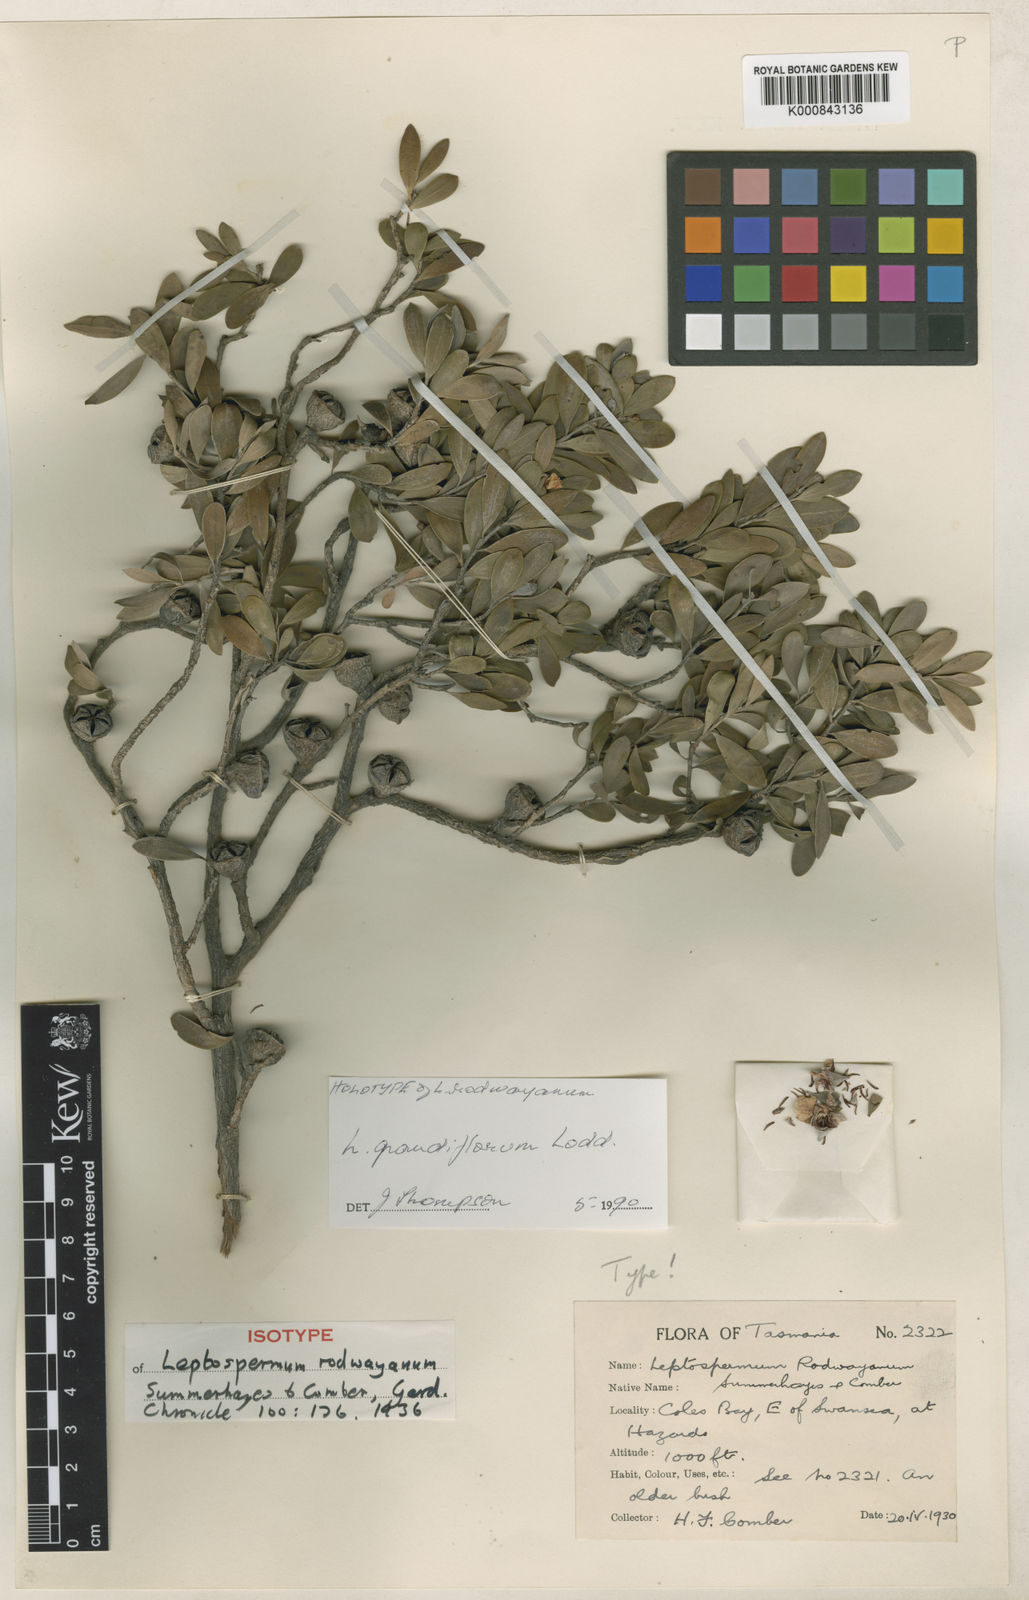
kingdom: Plantae
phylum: Tracheophyta
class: Magnoliopsida
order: Myrtales
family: Myrtaceae
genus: Leptospermum
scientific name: Leptospermum grandiflorum
